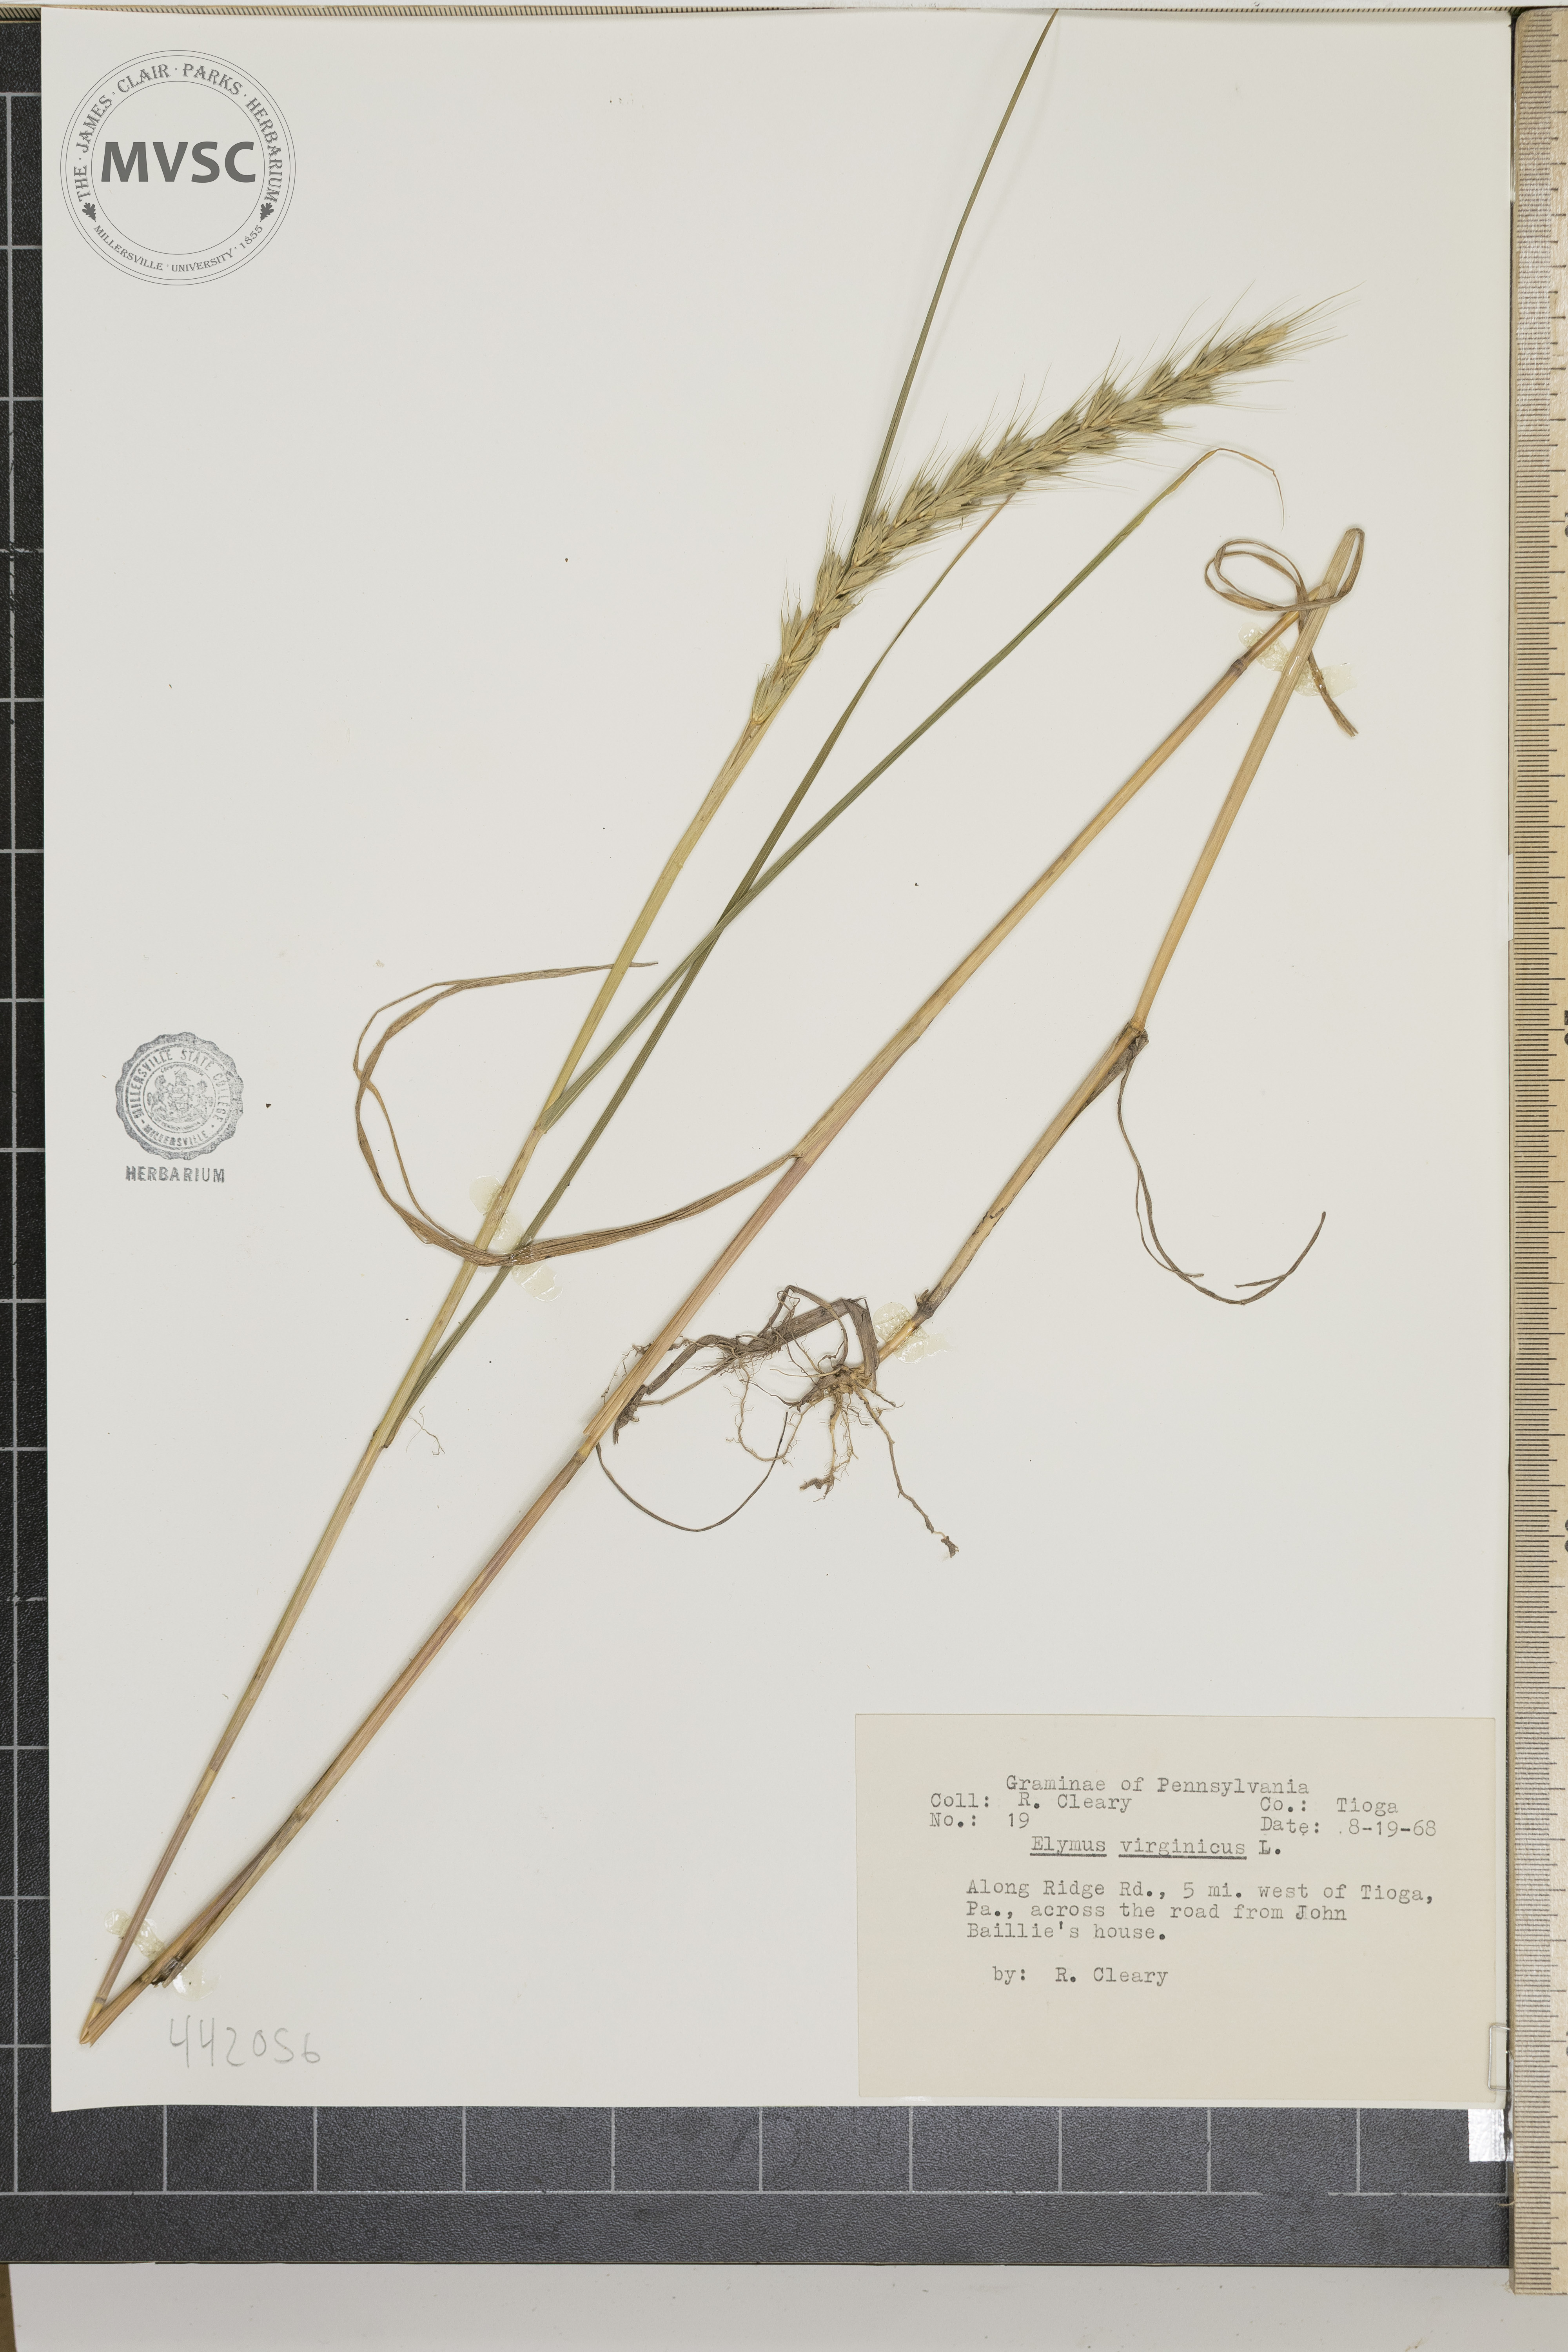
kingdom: Plantae
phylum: Tracheophyta
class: Liliopsida
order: Poales
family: Poaceae
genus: Elymus
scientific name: Elymus virginicus
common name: Common eastern wildrye
